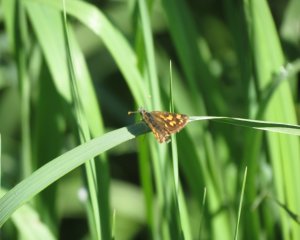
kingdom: Animalia
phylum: Arthropoda
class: Insecta
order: Lepidoptera
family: Hesperiidae
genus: Carterocephalus
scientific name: Carterocephalus palaemon
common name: Chequered Skipper
